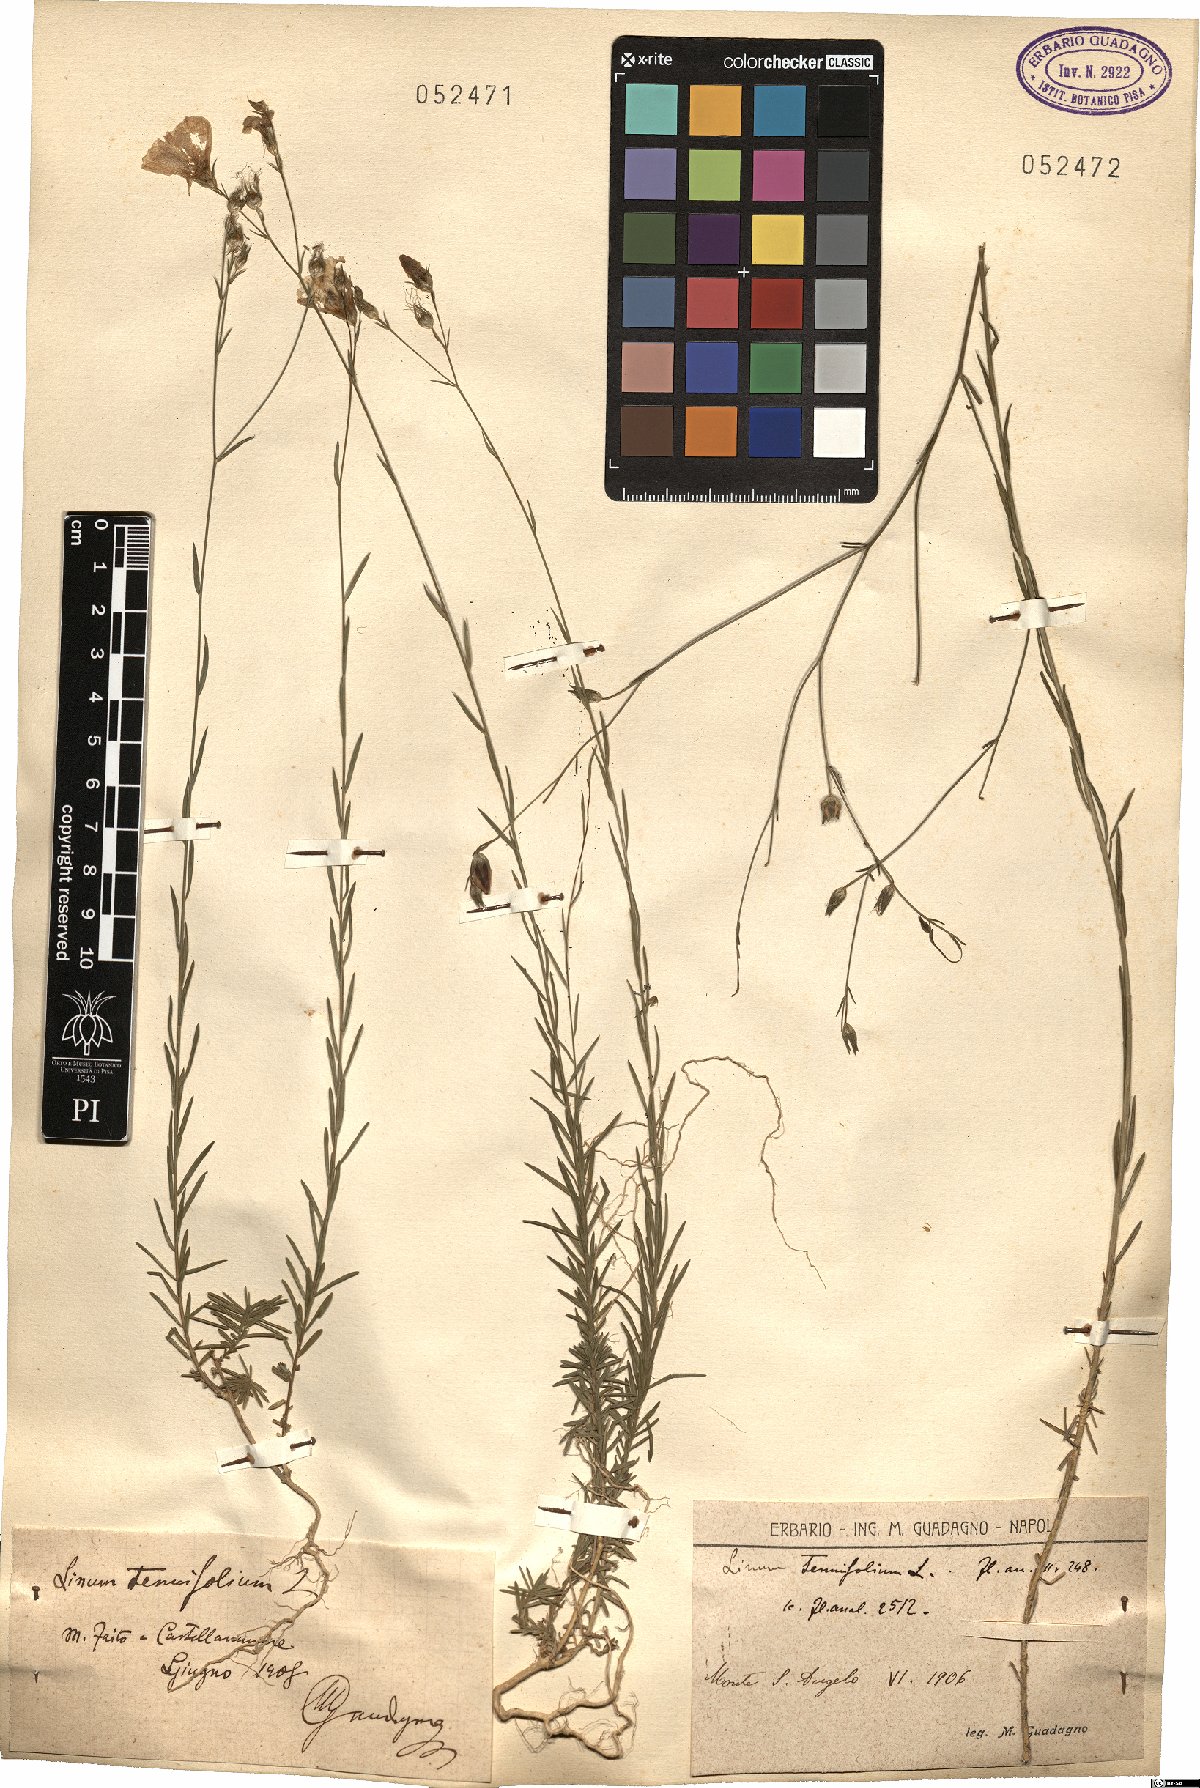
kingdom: Plantae
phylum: Tracheophyta
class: Magnoliopsida
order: Malpighiales
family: Linaceae
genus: Linum
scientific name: Linum tenuifolium
